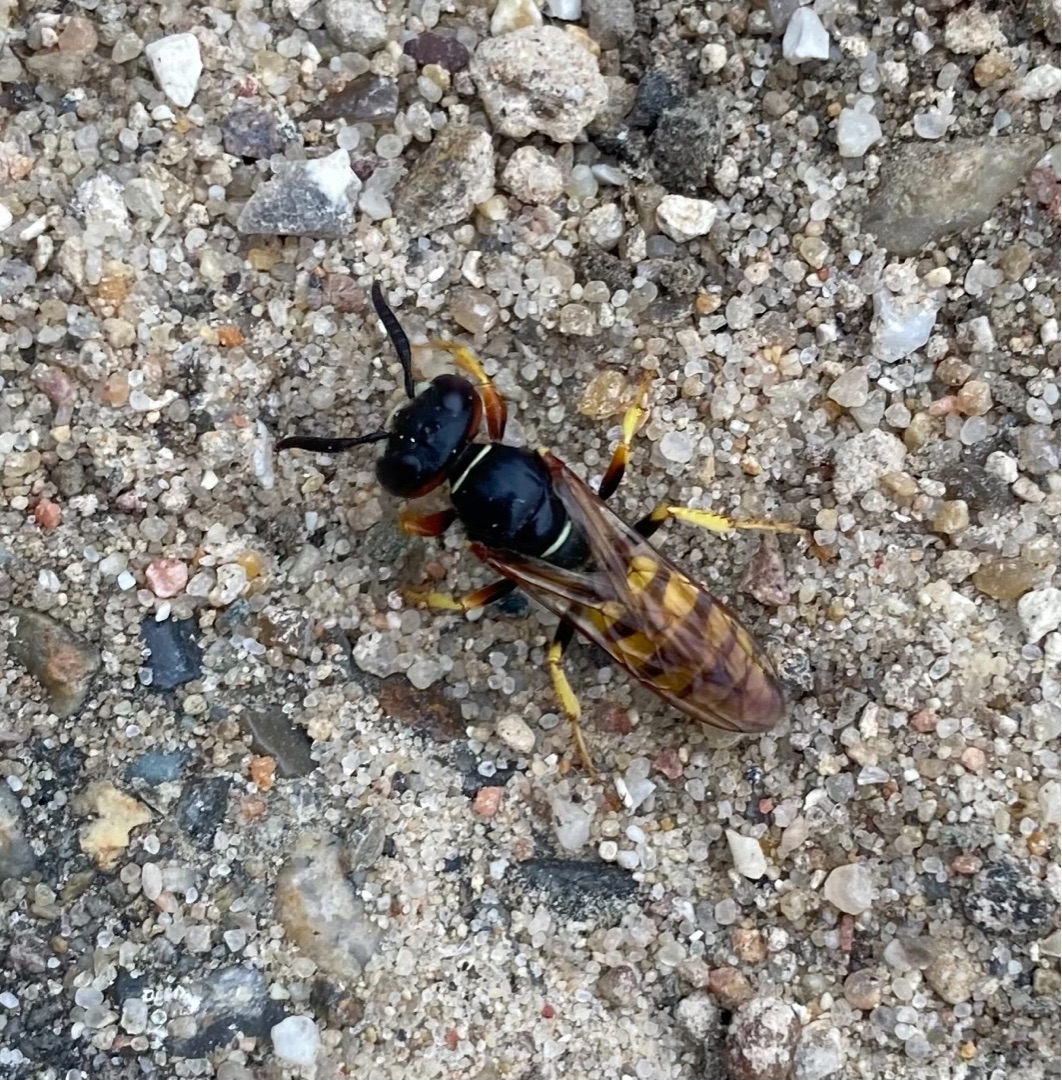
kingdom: Animalia
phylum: Arthropoda
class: Insecta
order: Hymenoptera
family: Crabronidae
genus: Philanthus
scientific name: Philanthus triangulum
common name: Biulv
